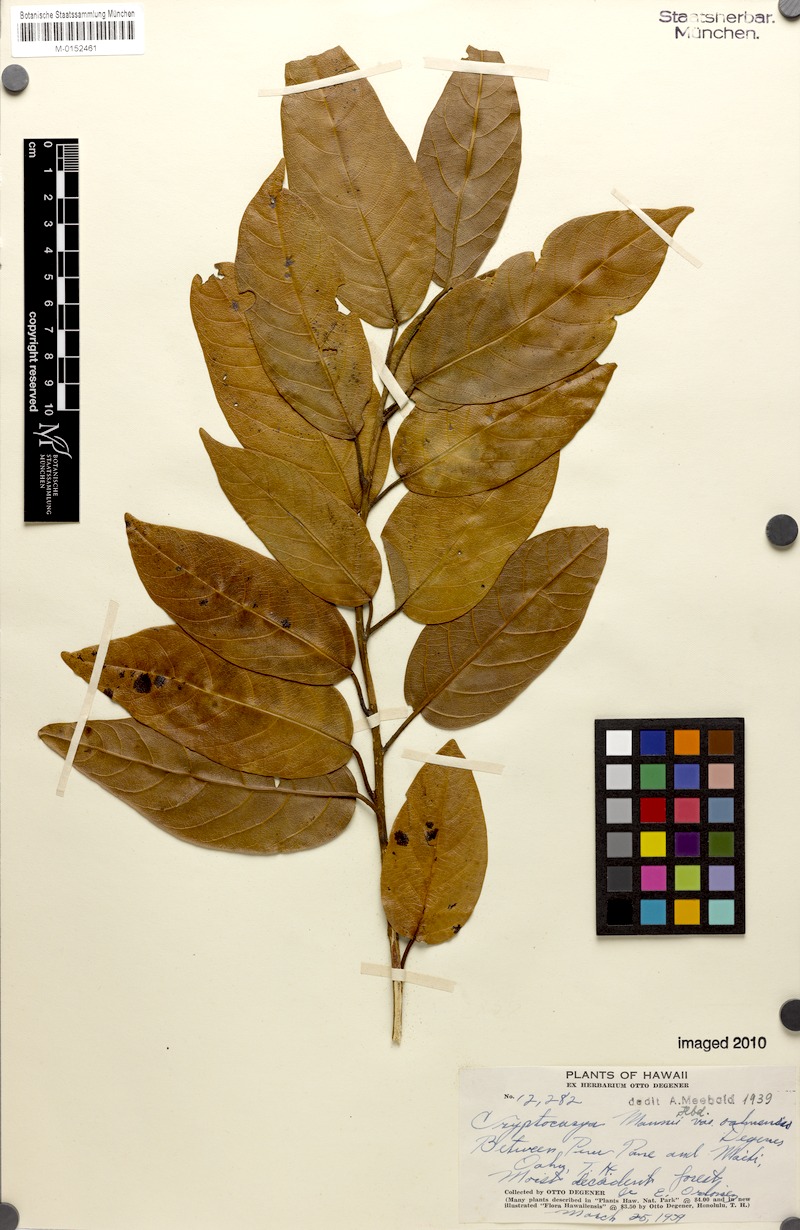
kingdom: Plantae
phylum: Tracheophyta
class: Magnoliopsida
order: Laurales
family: Lauraceae
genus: Cryptocarya
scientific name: Cryptocarya mannii
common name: Mann cryptocarya
